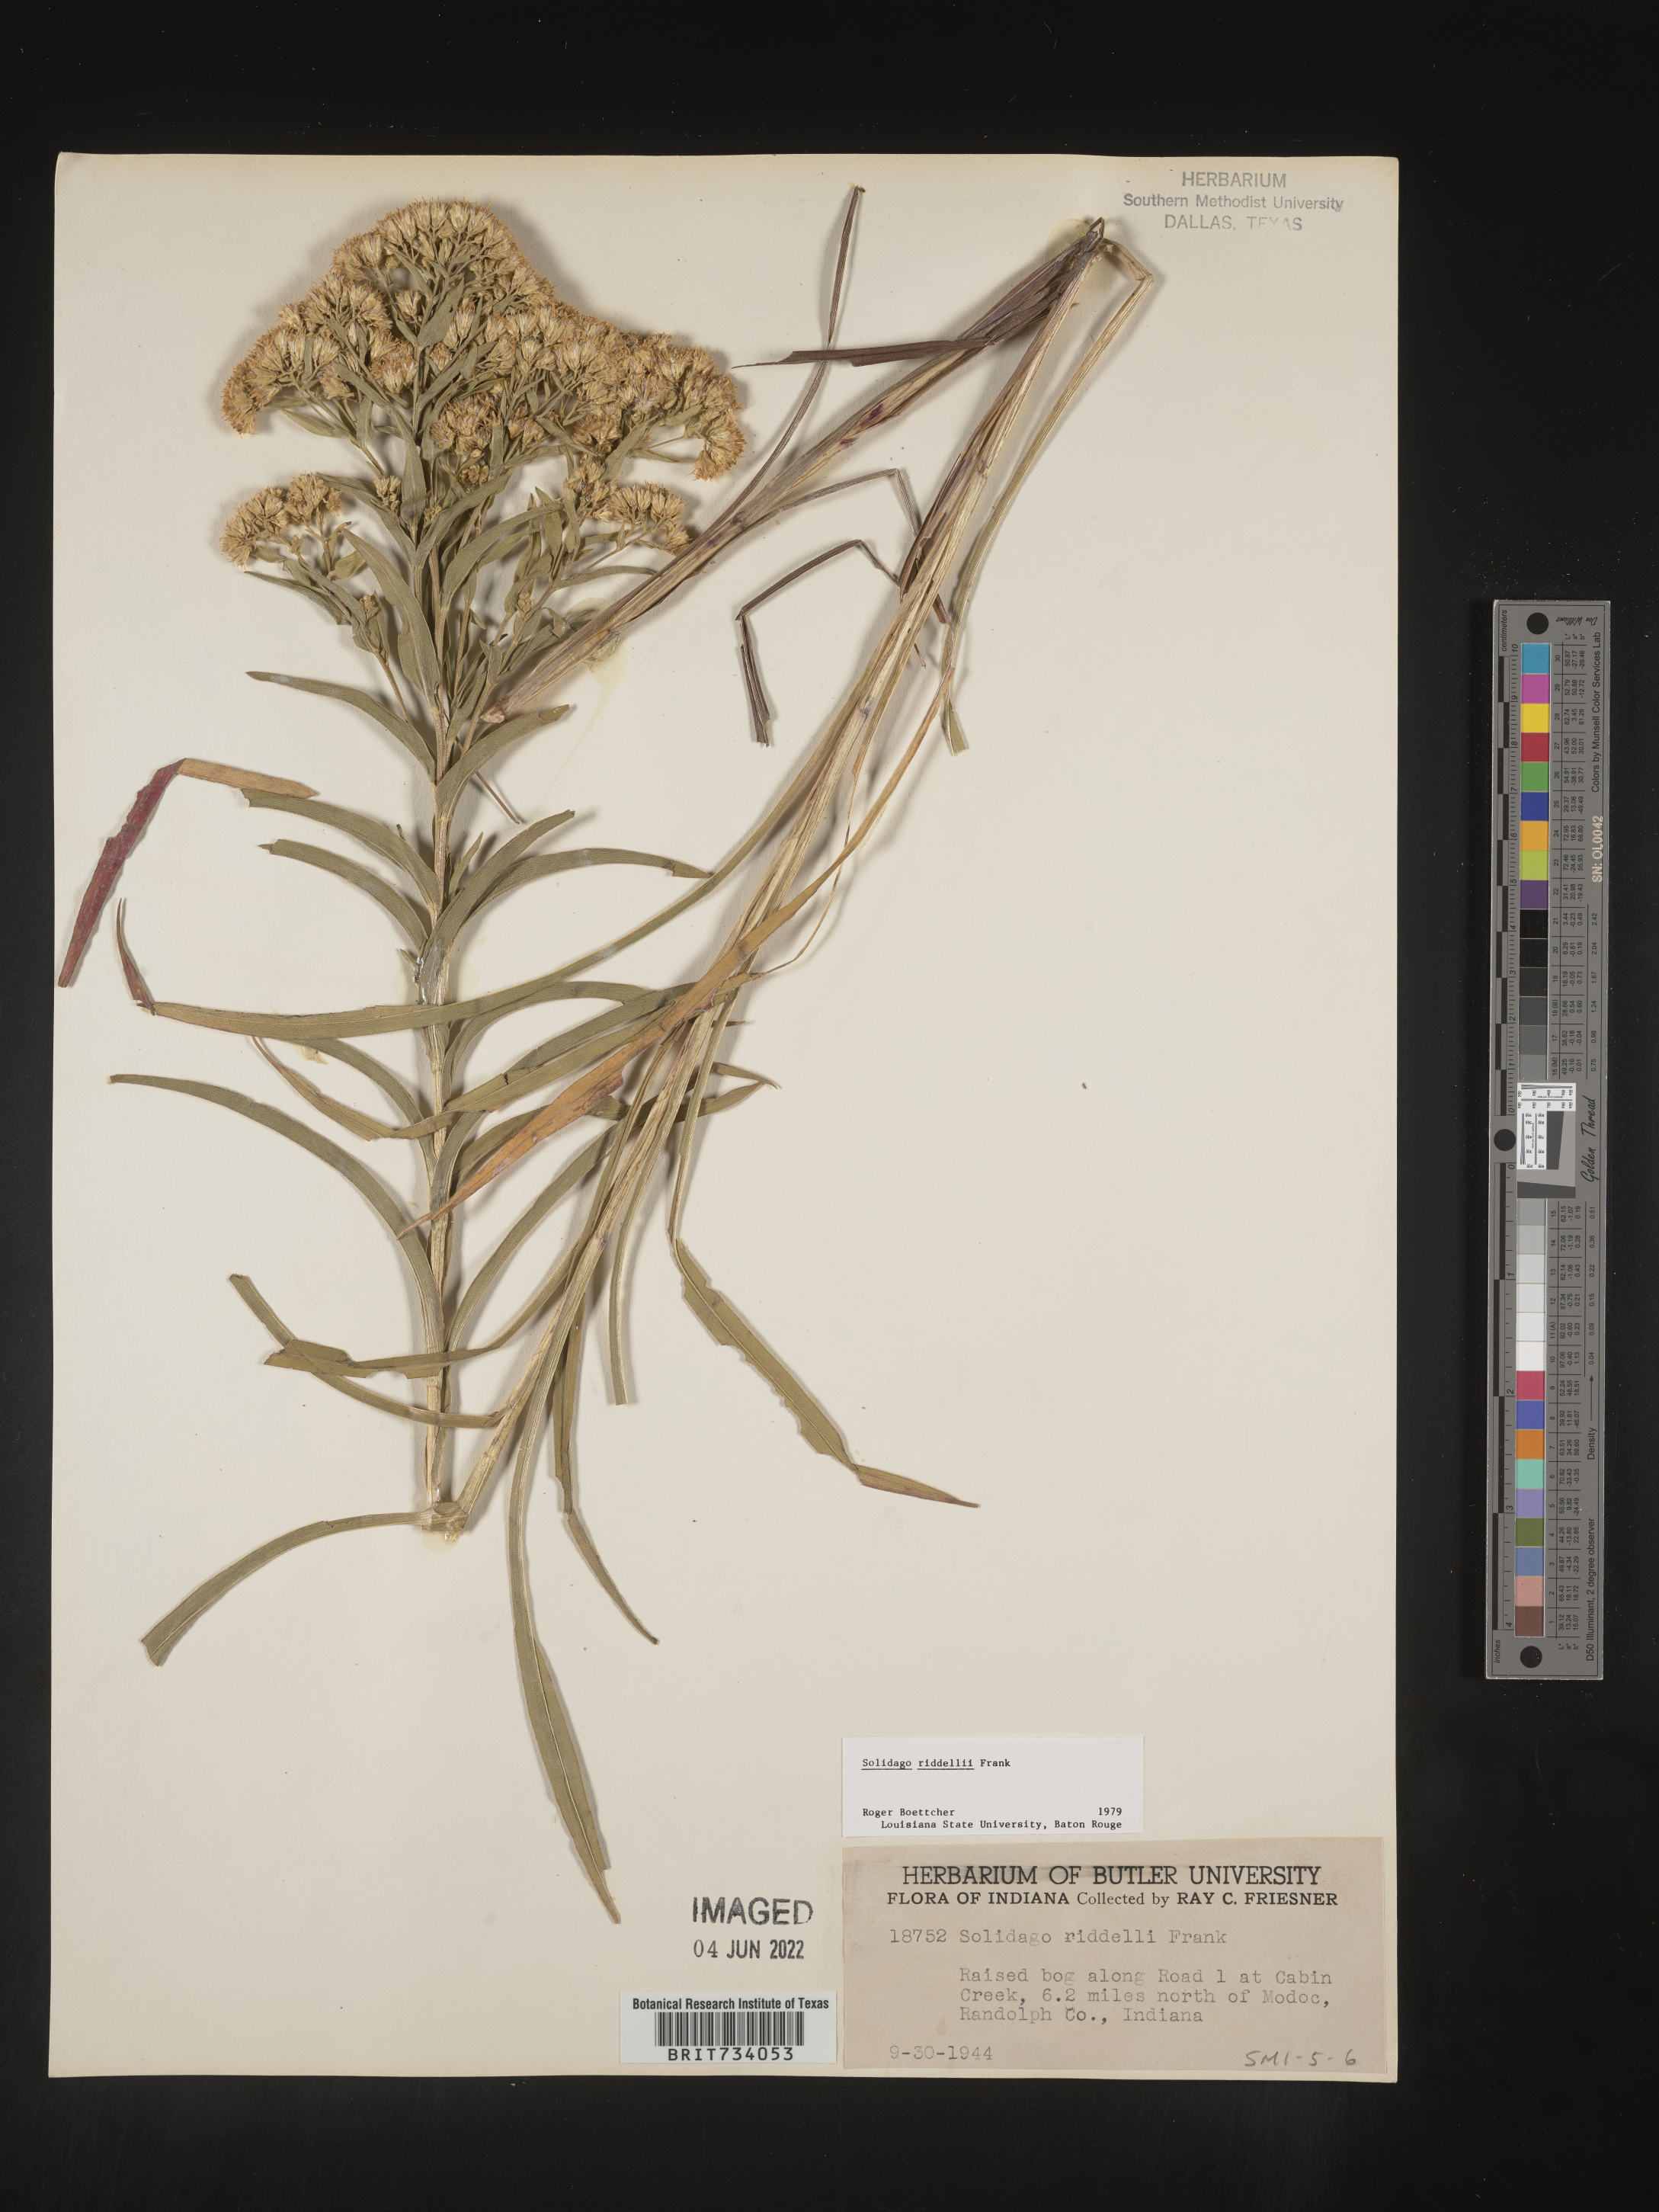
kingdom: Plantae
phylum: Tracheophyta
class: Magnoliopsida
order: Asterales
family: Asteraceae
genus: Solidago
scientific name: Solidago riddellii
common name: Riddell's goldenrod
